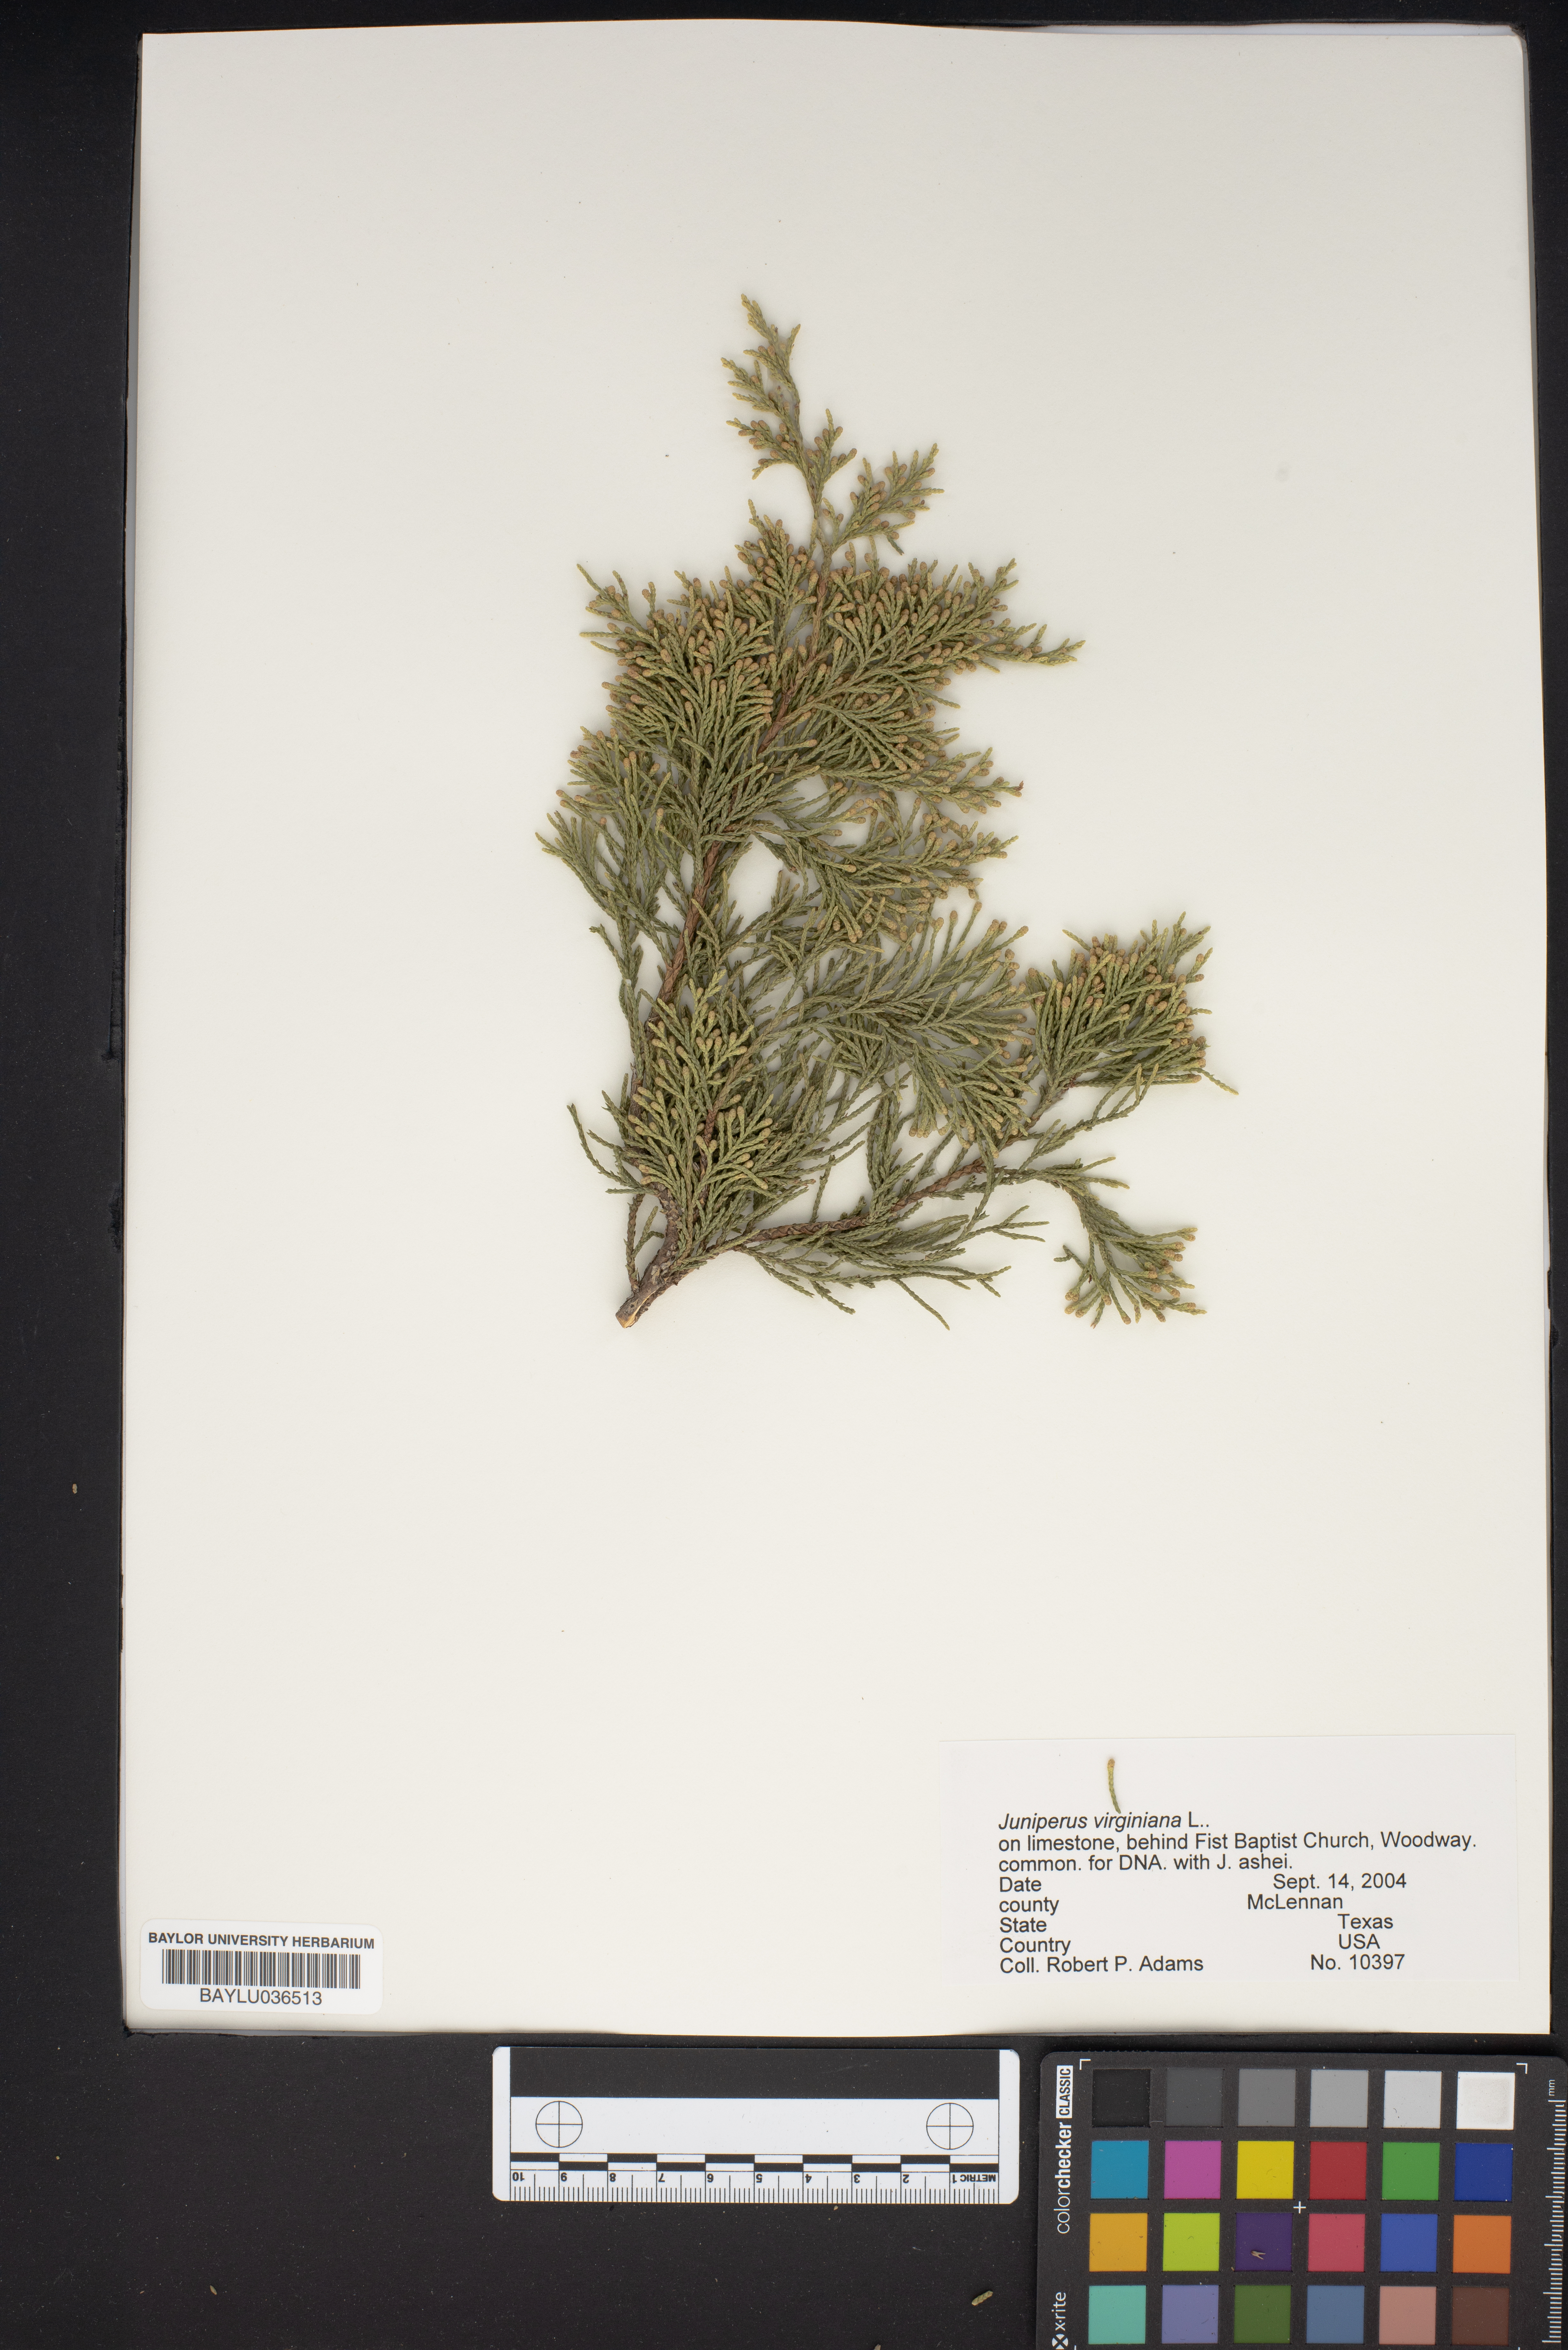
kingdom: Plantae
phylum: Tracheophyta
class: Pinopsida
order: Pinales
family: Cupressaceae
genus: Juniperus
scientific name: Juniperus virginiana
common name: Red juniper
